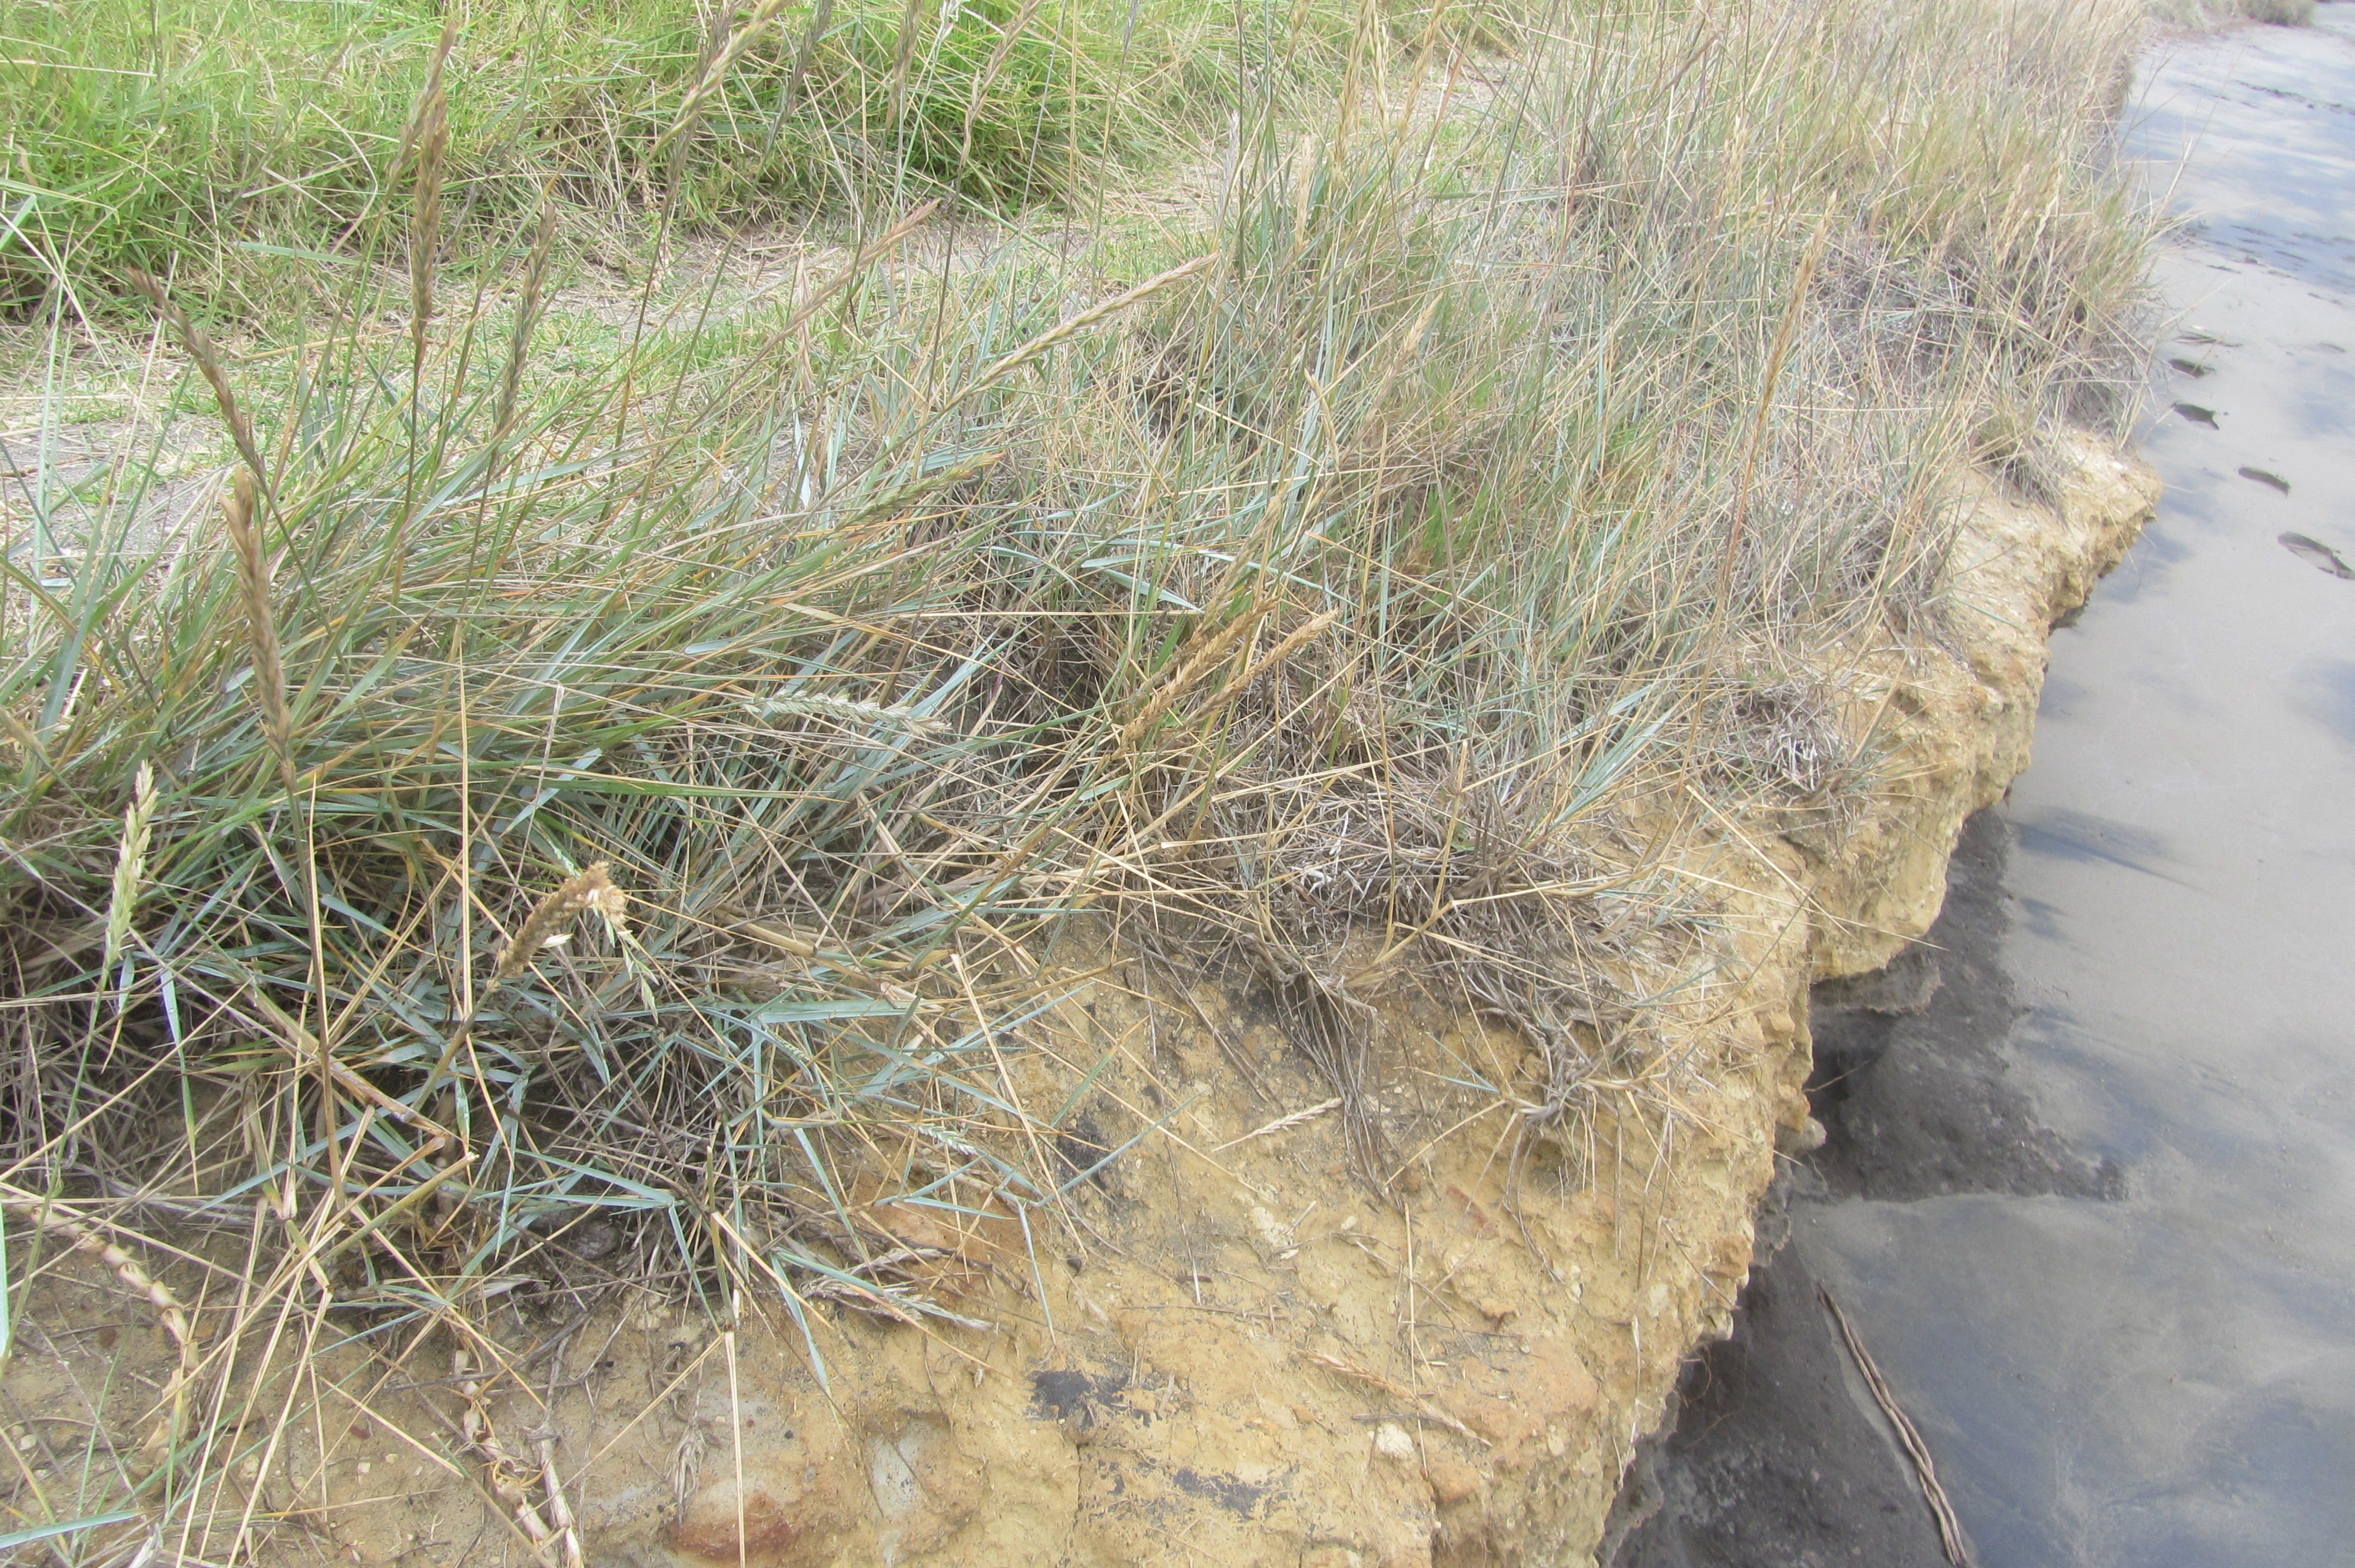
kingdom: Plantae
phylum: Marchantiophyta
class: Jungermanniopsida
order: Porellales
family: Frullaniaceae
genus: Frullania
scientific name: Frullania pentapleura
